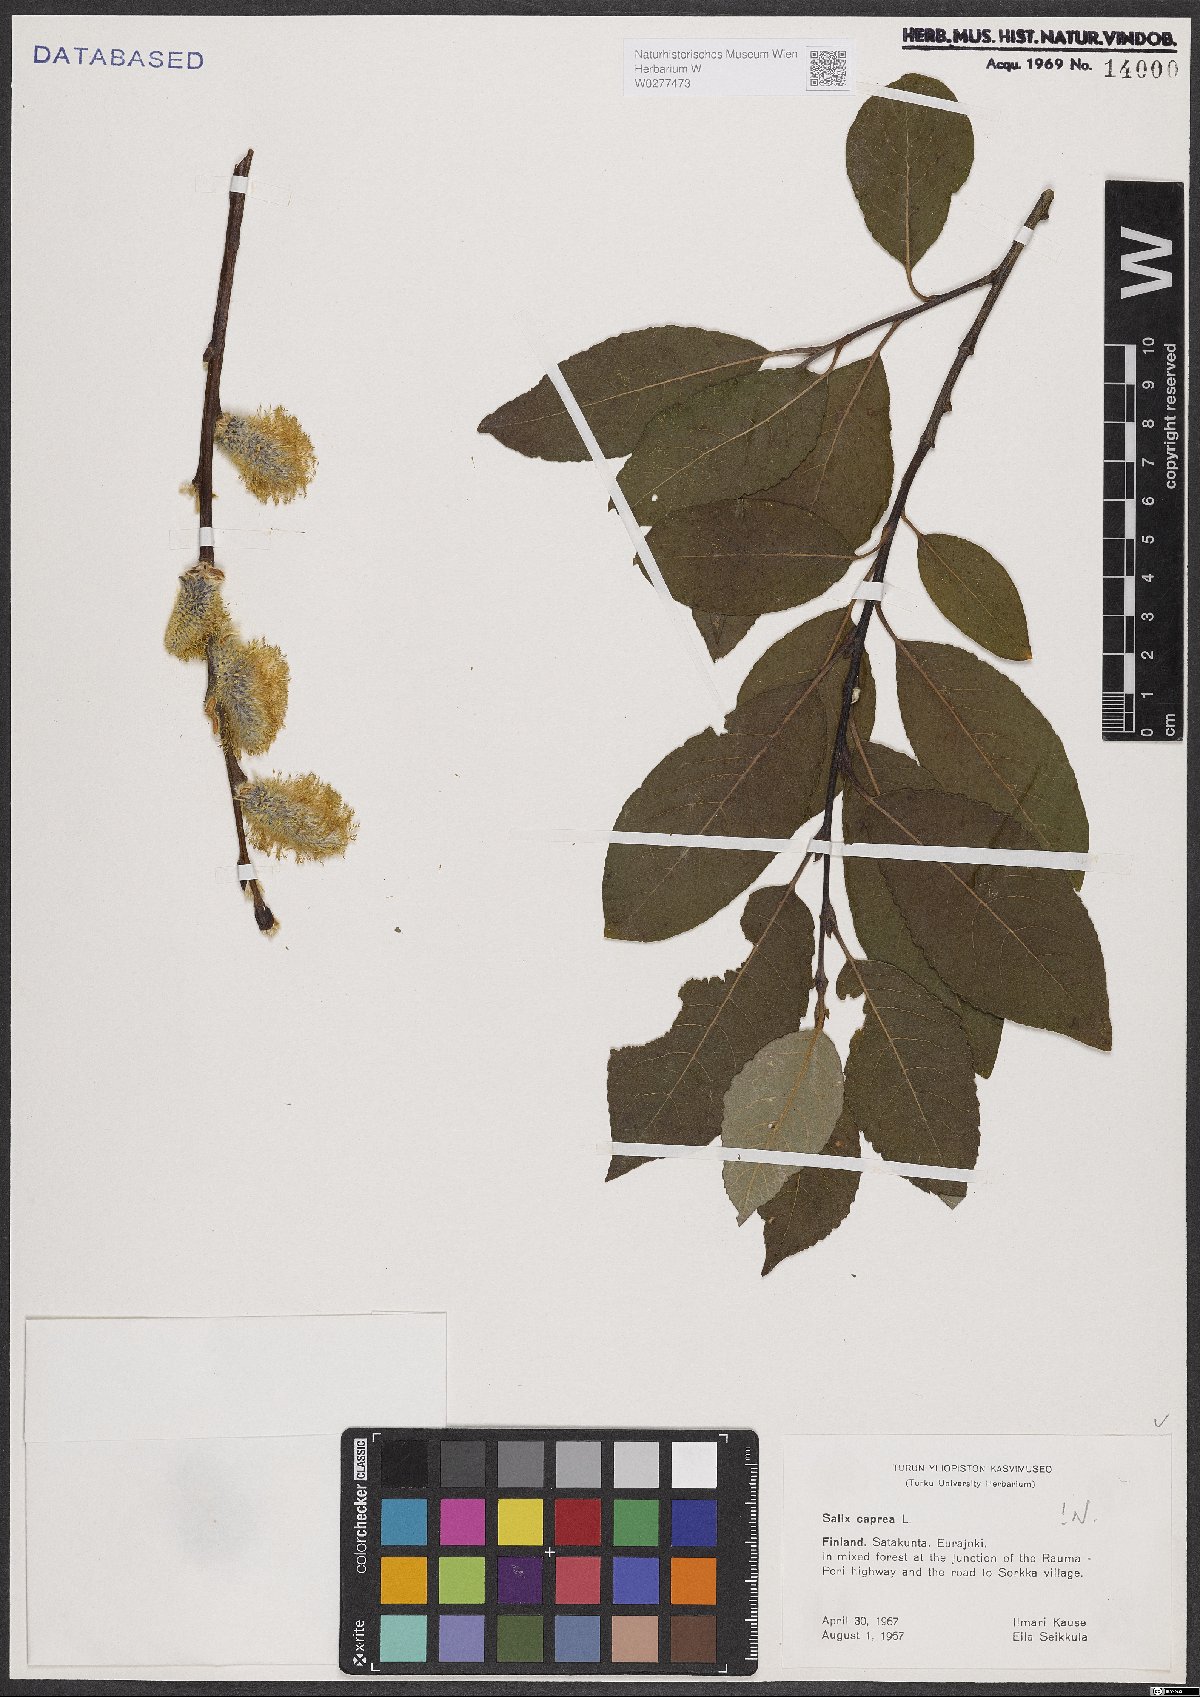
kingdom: Plantae
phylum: Tracheophyta
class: Magnoliopsida
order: Malpighiales
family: Salicaceae
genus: Salix
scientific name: Salix caprea
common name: Goat willow
